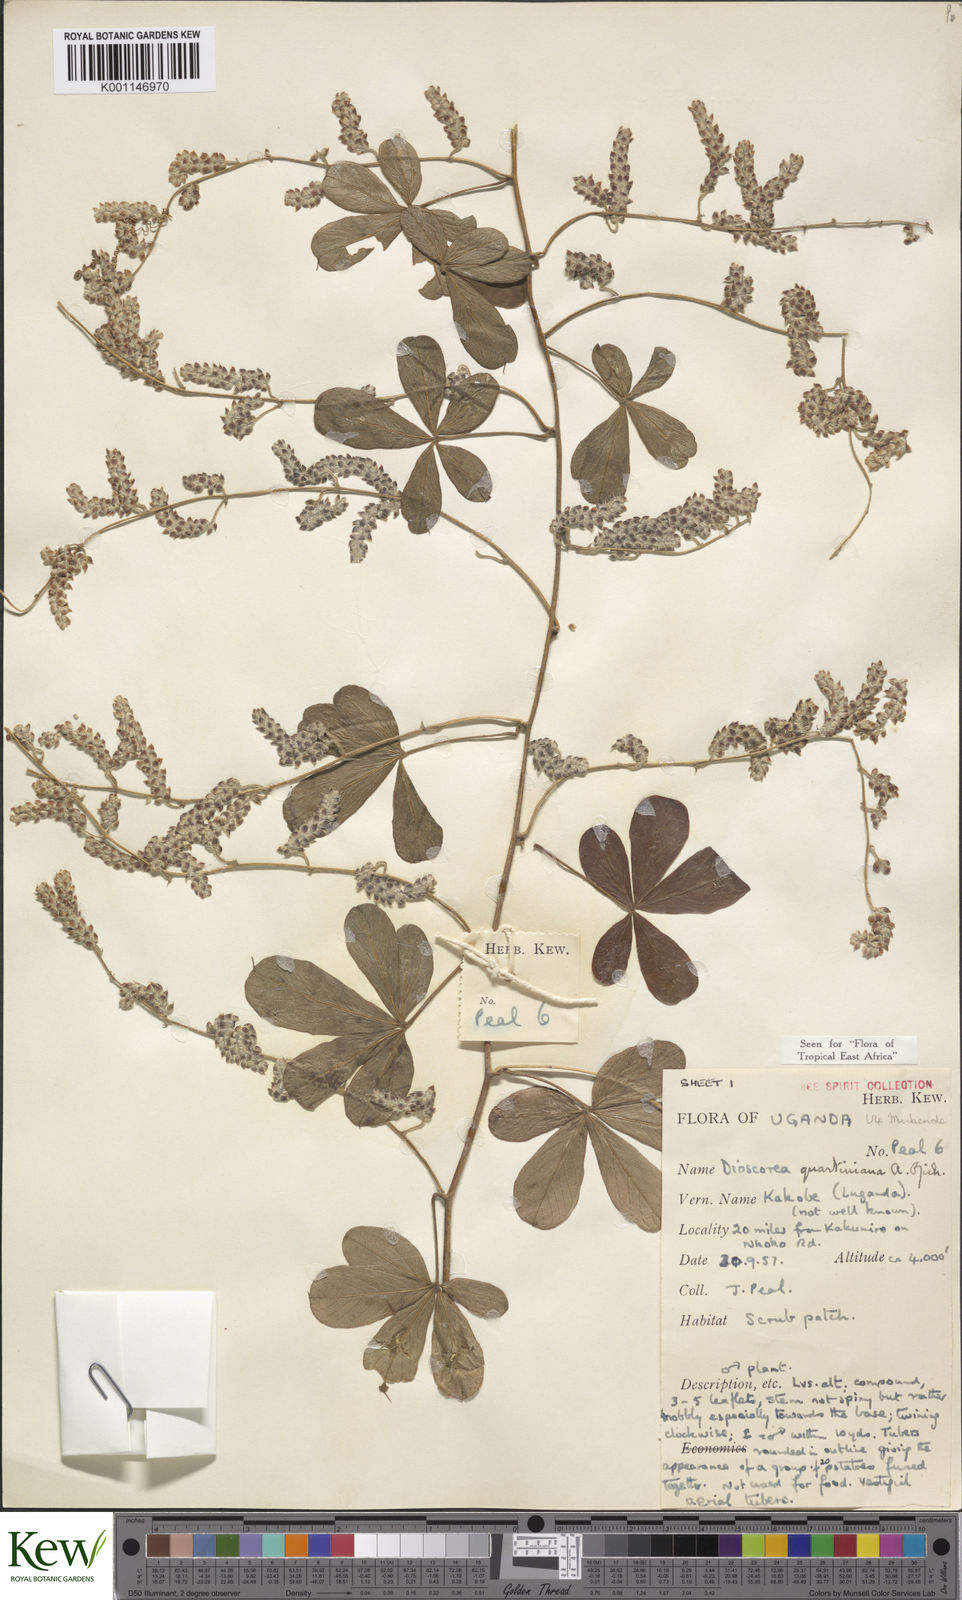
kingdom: Plantae
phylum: Tracheophyta
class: Liliopsida
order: Dioscoreales
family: Dioscoreaceae
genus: Dioscorea
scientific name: Dioscorea quartiniana
